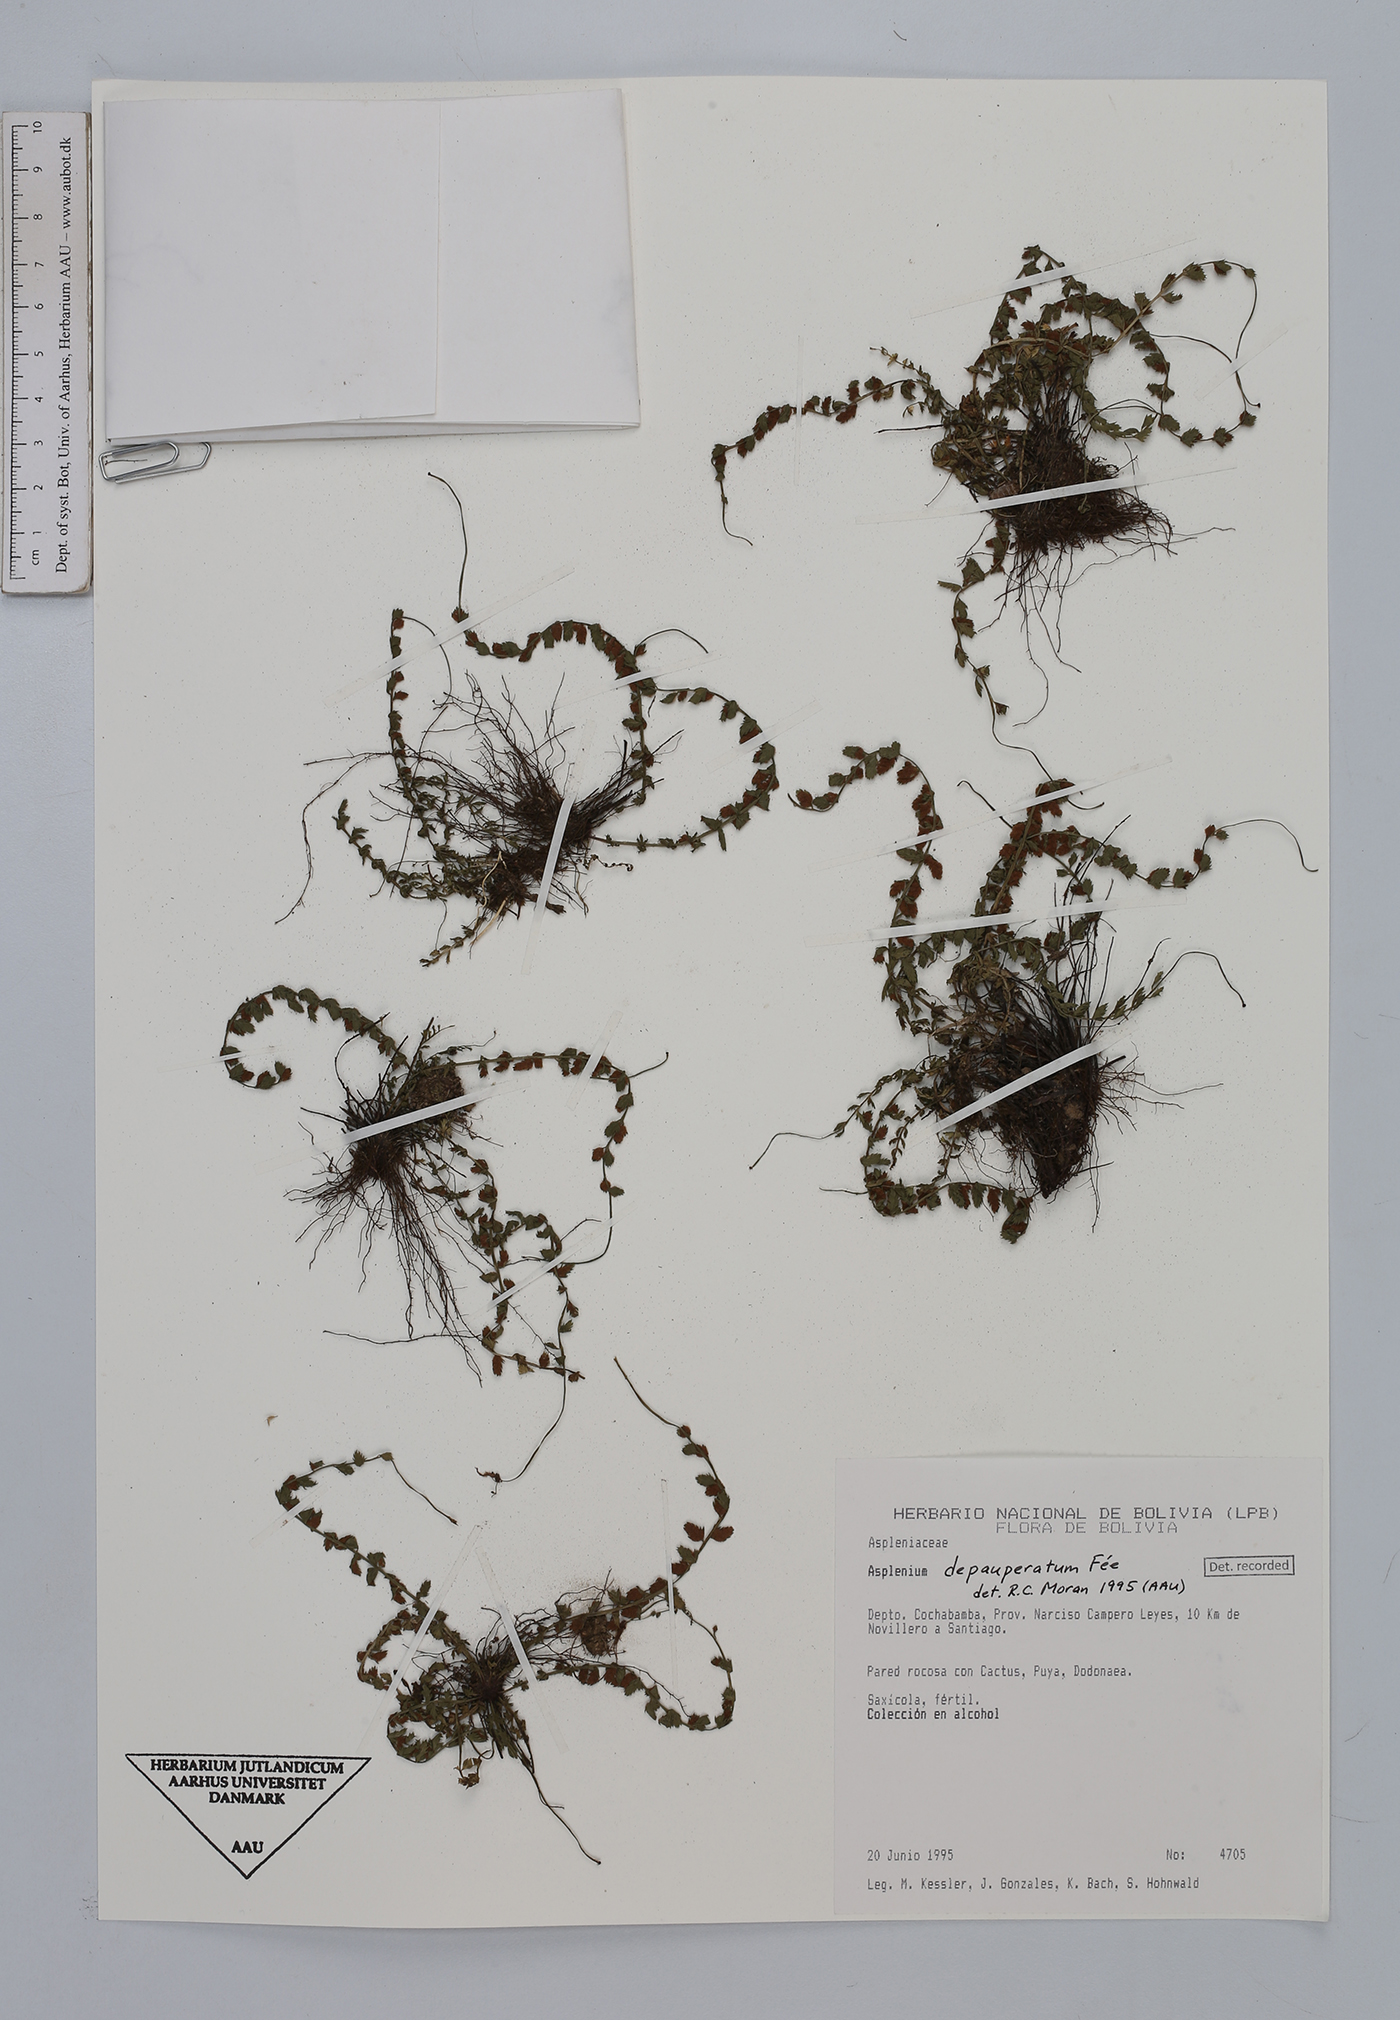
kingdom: Plantae
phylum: Tracheophyta
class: Polypodiopsida
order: Polypodiales
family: Aspleniaceae
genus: Asplenium
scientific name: Asplenium depauperatum
